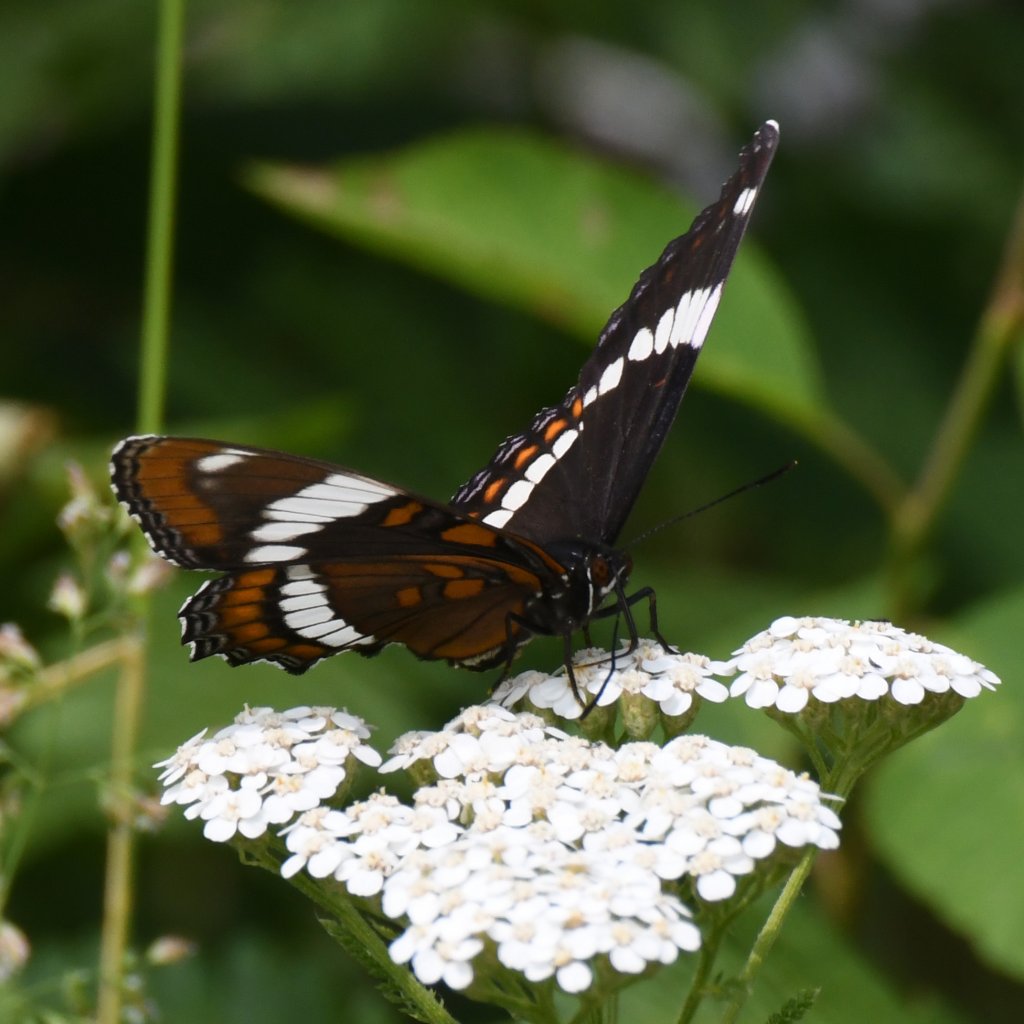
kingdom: Animalia
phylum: Arthropoda
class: Insecta
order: Lepidoptera
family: Nymphalidae
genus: Limenitis
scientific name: Limenitis arthemis
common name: Red-spotted Admiral
